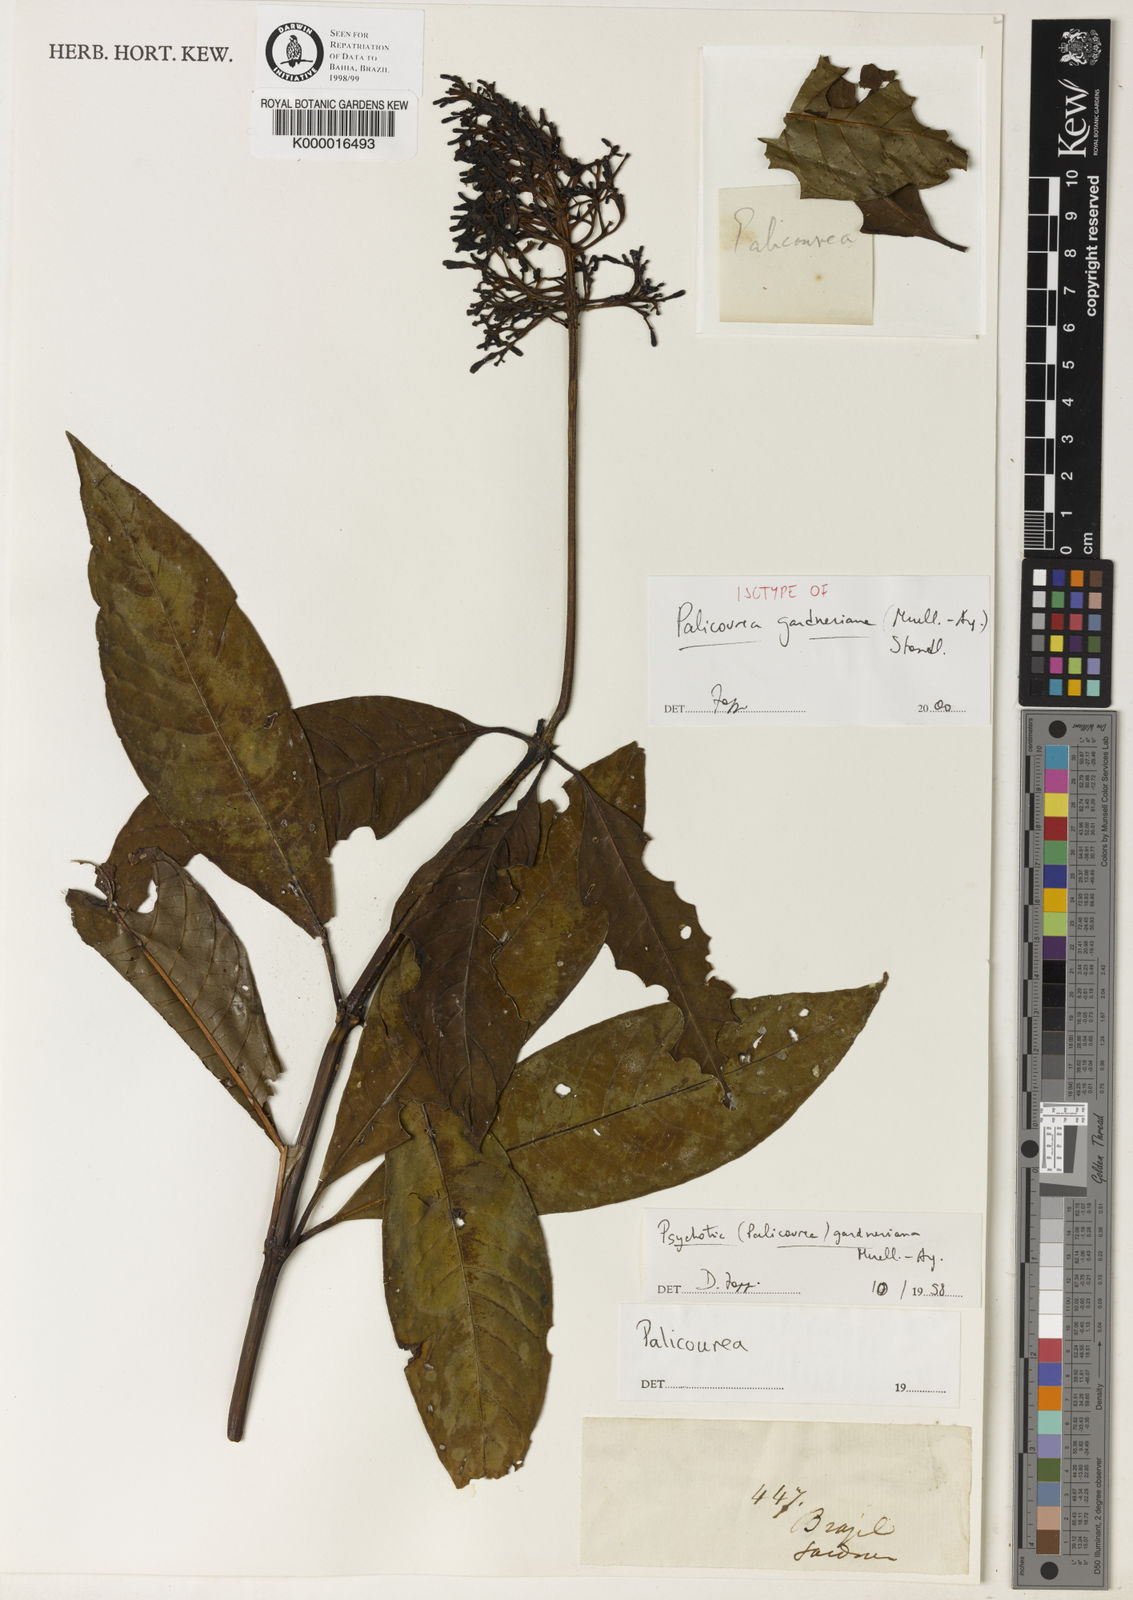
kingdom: Plantae
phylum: Tracheophyta
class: Magnoliopsida
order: Gentianales
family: Rubiaceae
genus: Palicourea
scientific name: Palicourea tetraphylla
